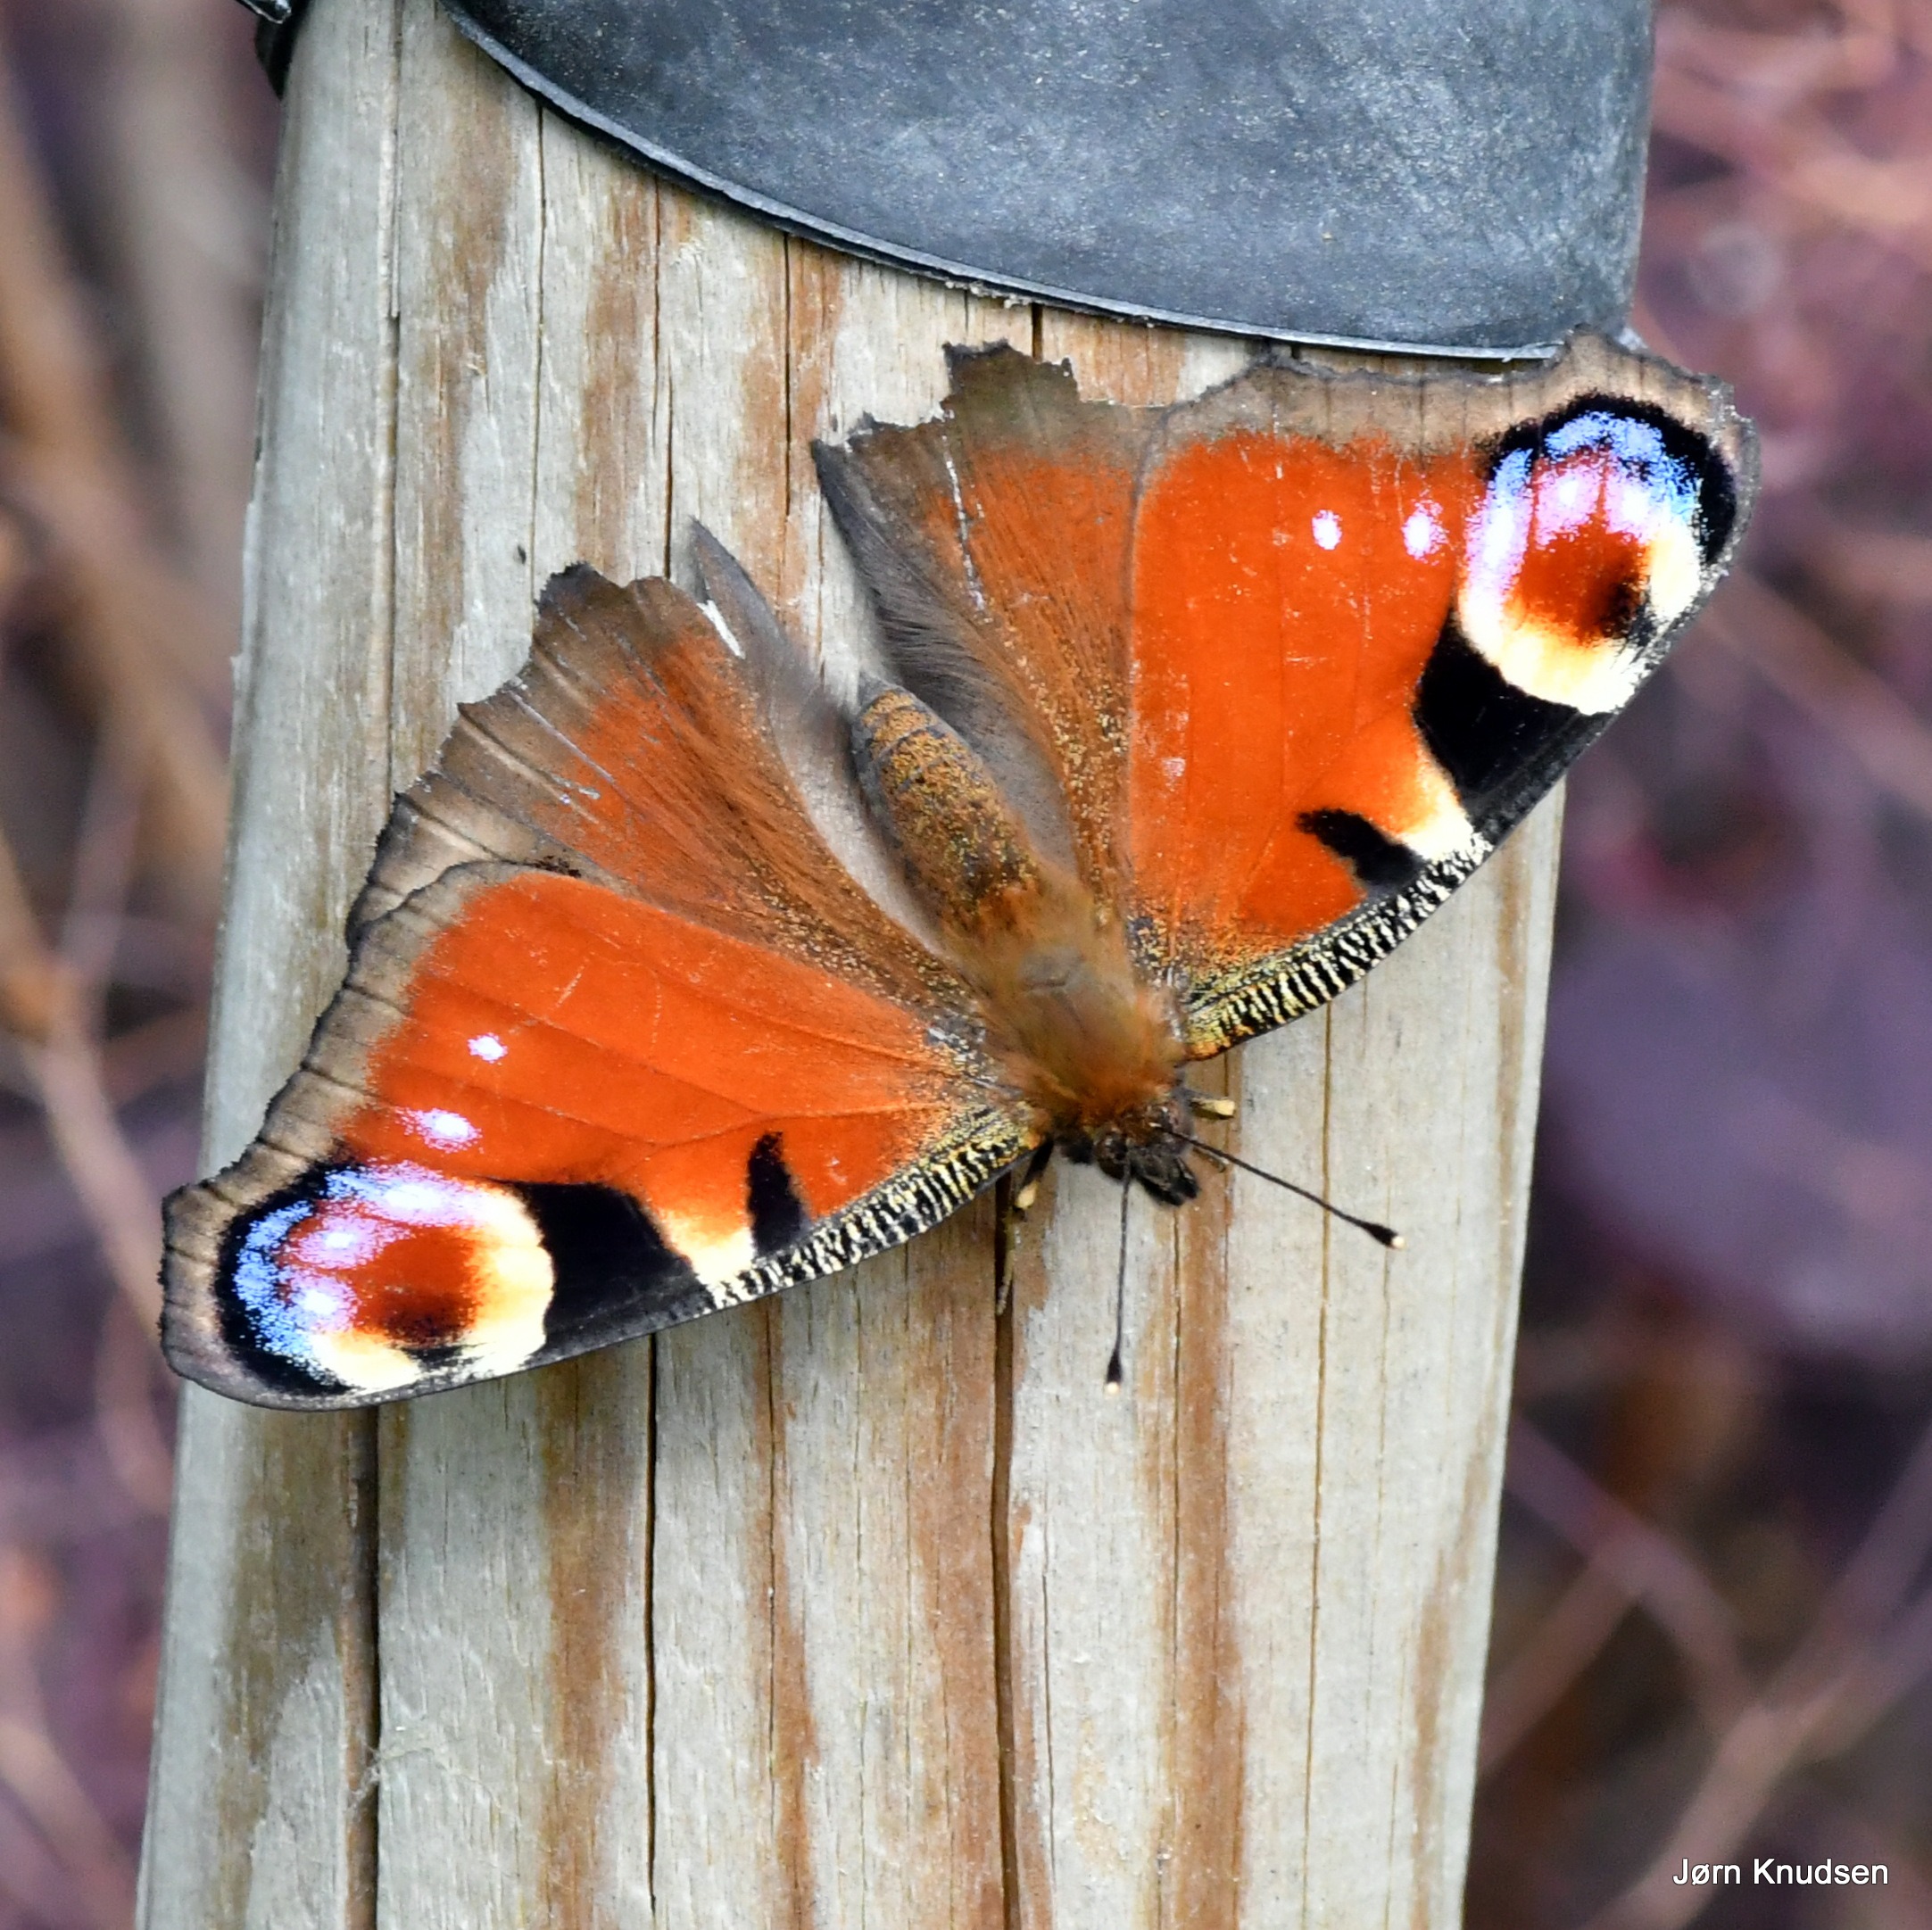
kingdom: Animalia
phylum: Arthropoda
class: Insecta
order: Lepidoptera
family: Nymphalidae
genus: Aglais
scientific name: Aglais io
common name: Dagpåfugleøje
